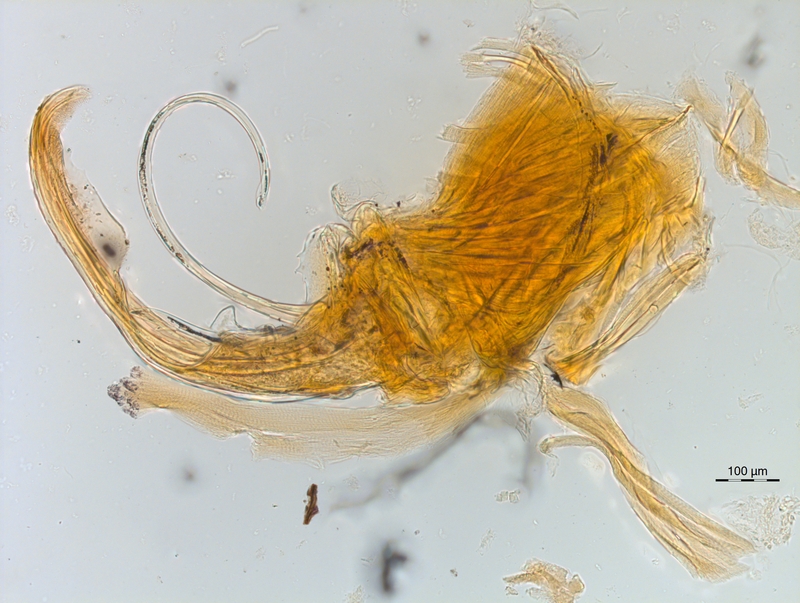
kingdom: Animalia
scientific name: Animalia
